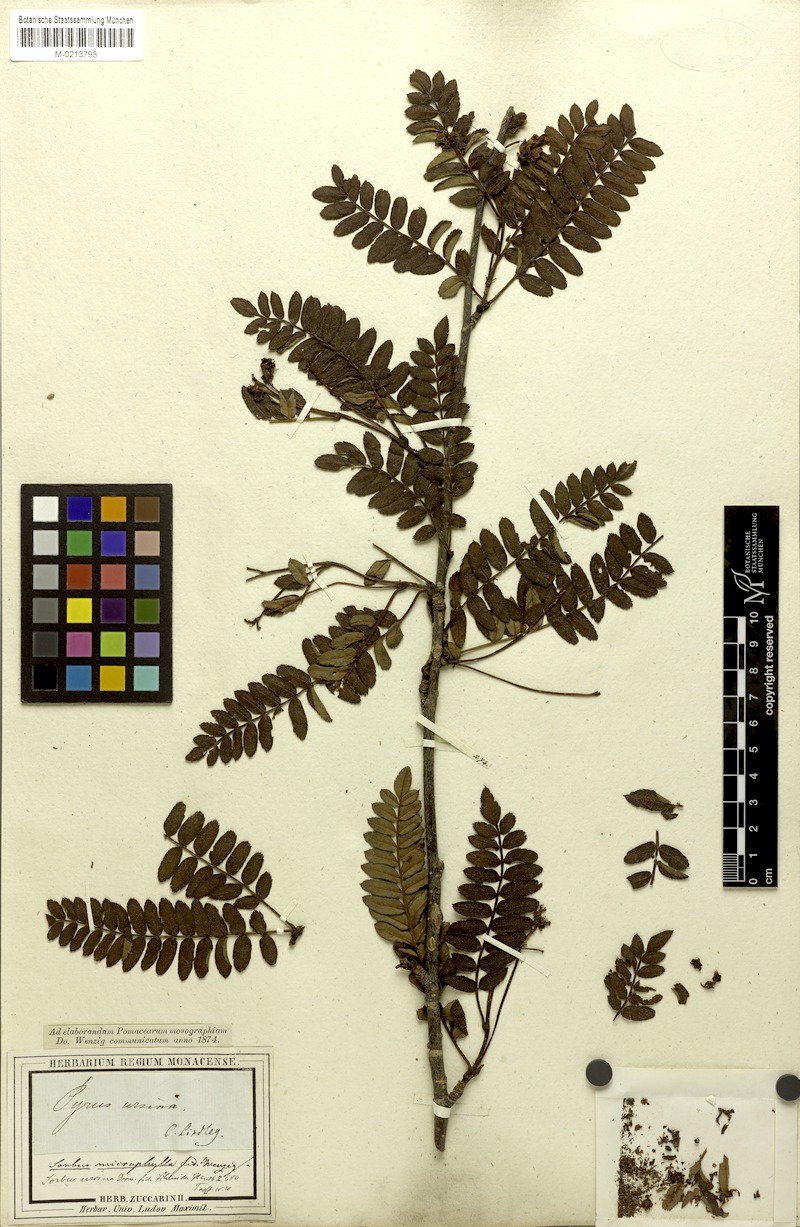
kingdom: Plantae
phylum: Tracheophyta
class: Magnoliopsida
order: Rosales
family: Rosaceae
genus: Sorbus
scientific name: Sorbus foliolosa
